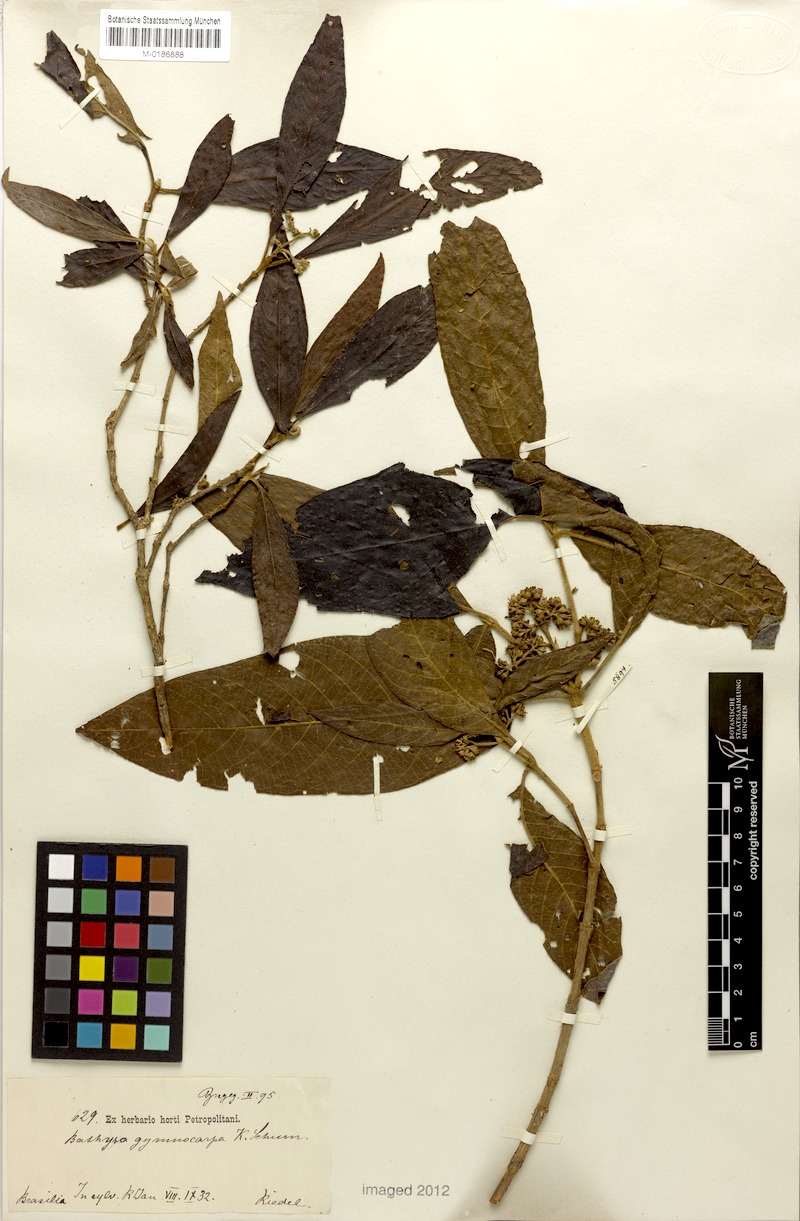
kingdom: Plantae
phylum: Tracheophyta
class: Magnoliopsida
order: Gentianales
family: Rubiaceae
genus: Bathysa
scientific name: Bathysa gymnocarpa
